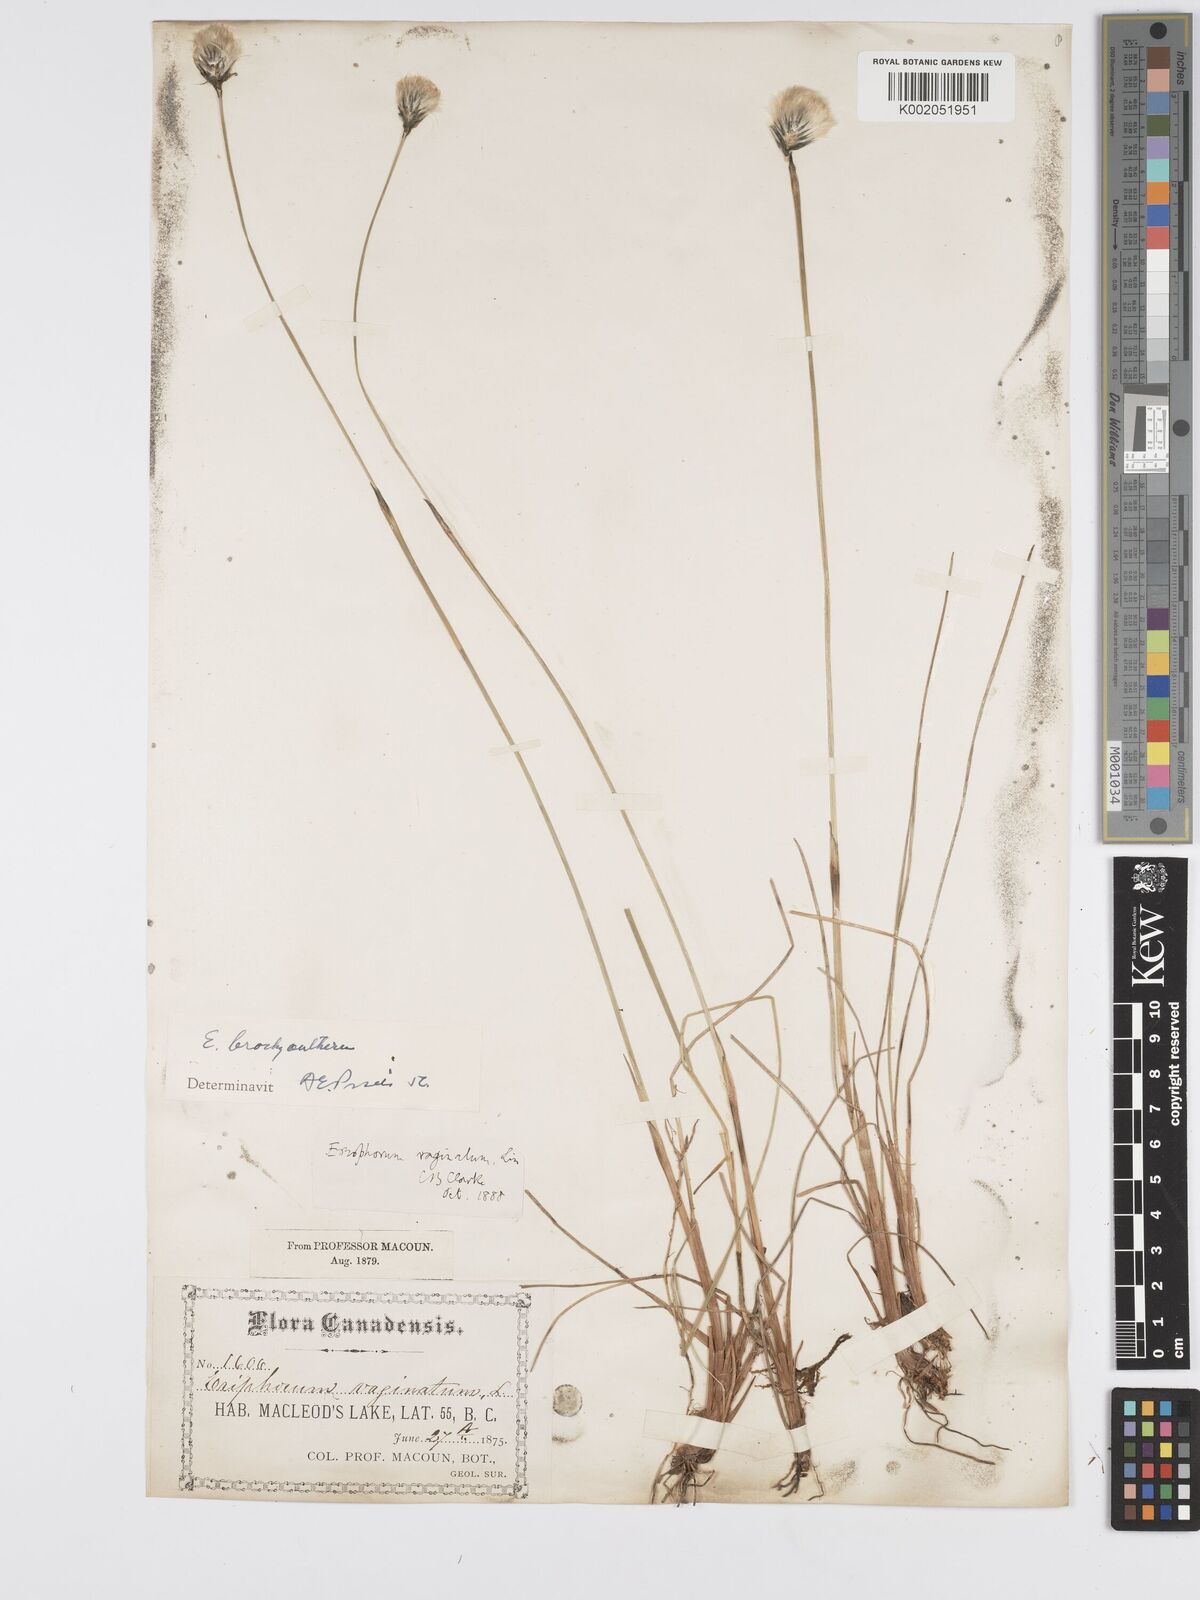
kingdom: Plantae
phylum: Tracheophyta
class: Liliopsida
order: Poales
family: Cyperaceae
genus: Eriophorum
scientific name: Eriophorum brachyantherum
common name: Closed-sheathed cottongrass
